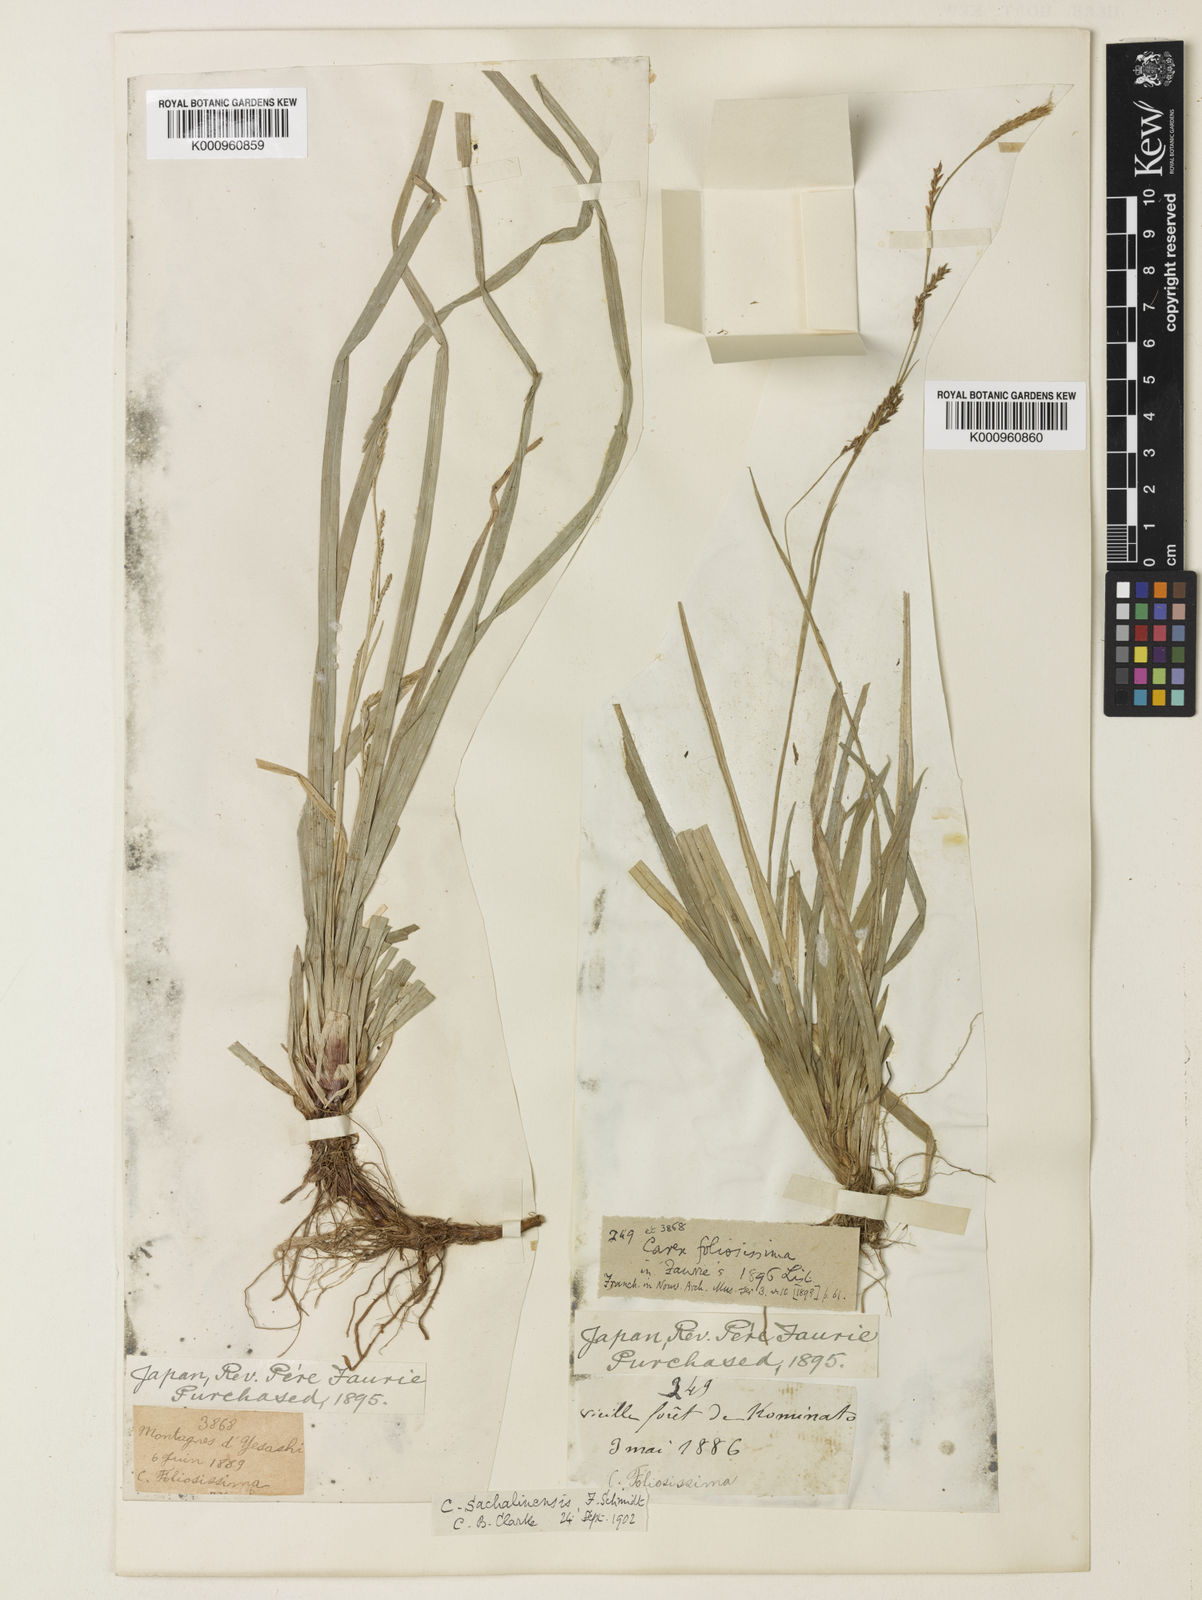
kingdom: Plantae
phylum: Tracheophyta
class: Liliopsida
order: Poales
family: Cyperaceae
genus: Carex
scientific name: Carex foliosissima
